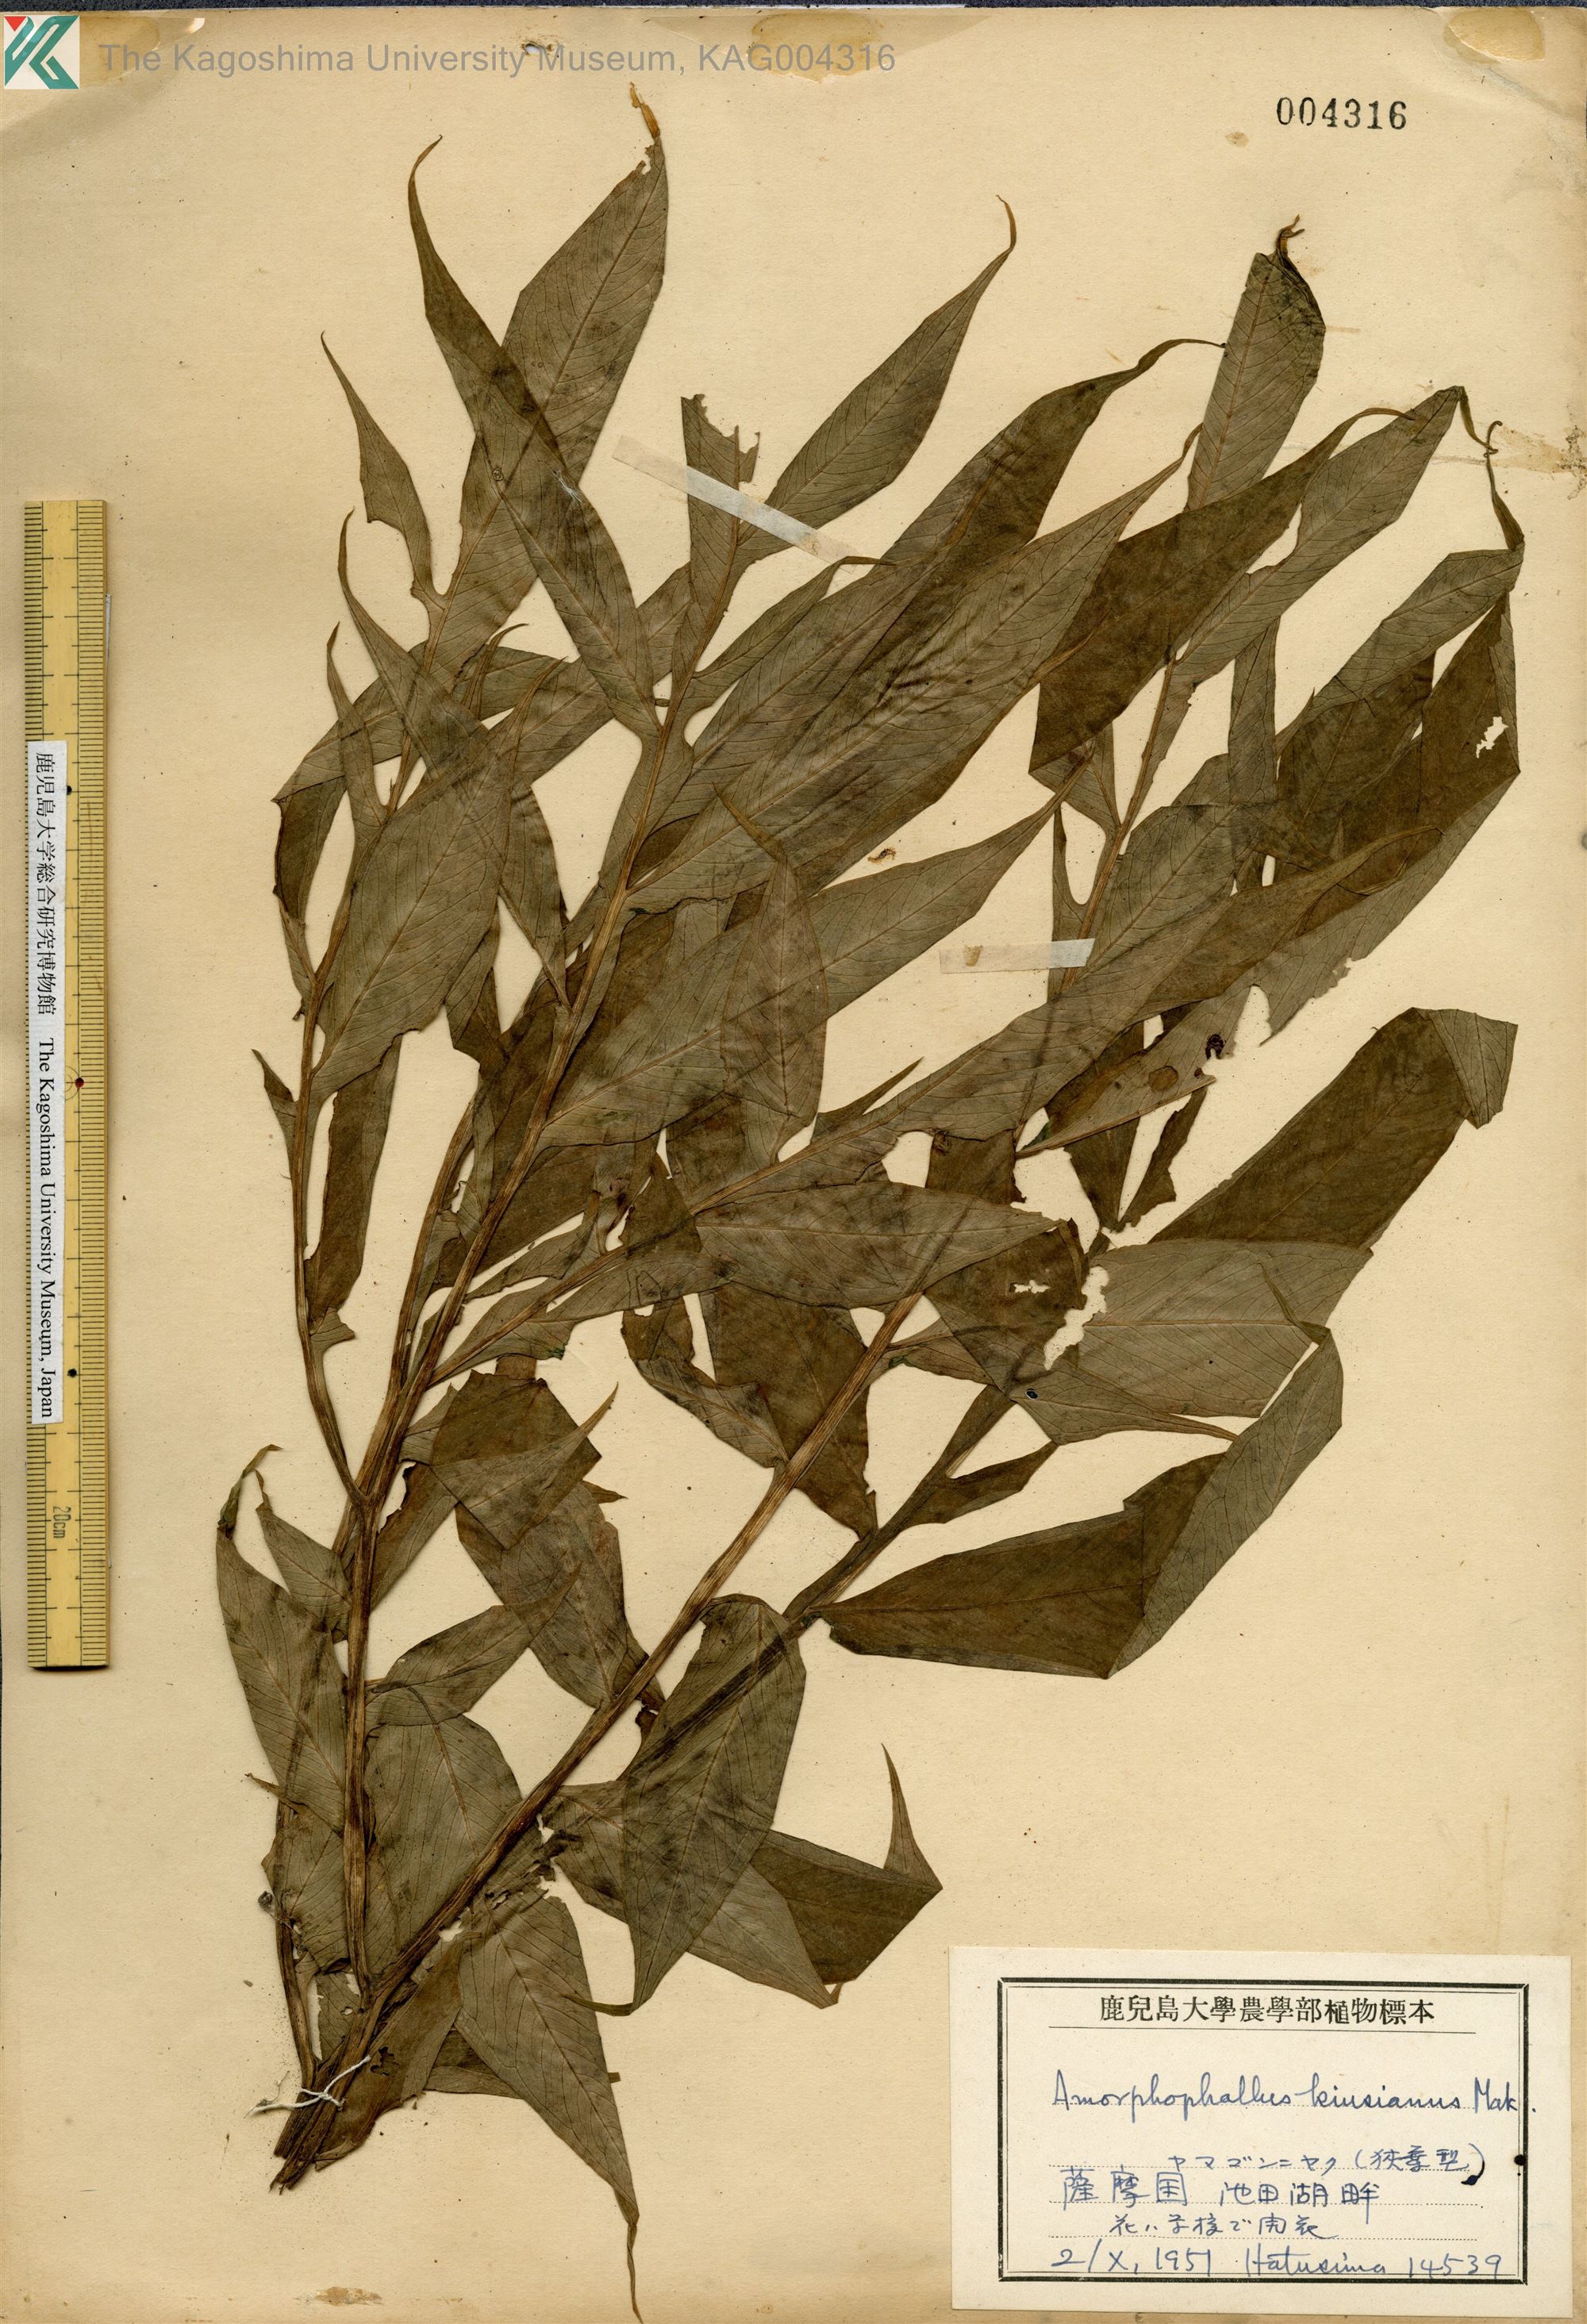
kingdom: Plantae
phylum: Tracheophyta
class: Liliopsida
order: Alismatales
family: Araceae
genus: Amorphophallus
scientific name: Amorphophallus kiusianus
